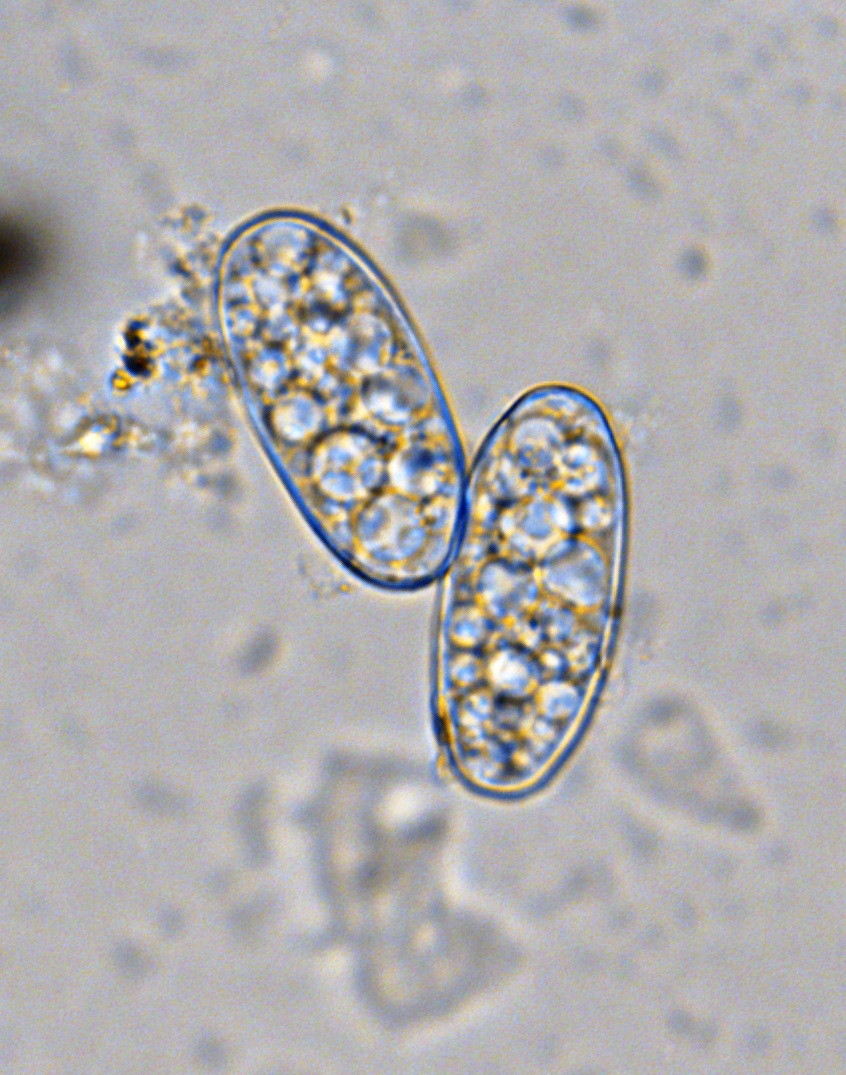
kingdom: Fungi
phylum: Ascomycota
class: Leotiomycetes
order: Helotiales
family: Erysiphaceae
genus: Erysiphe
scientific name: Erysiphe sedi
